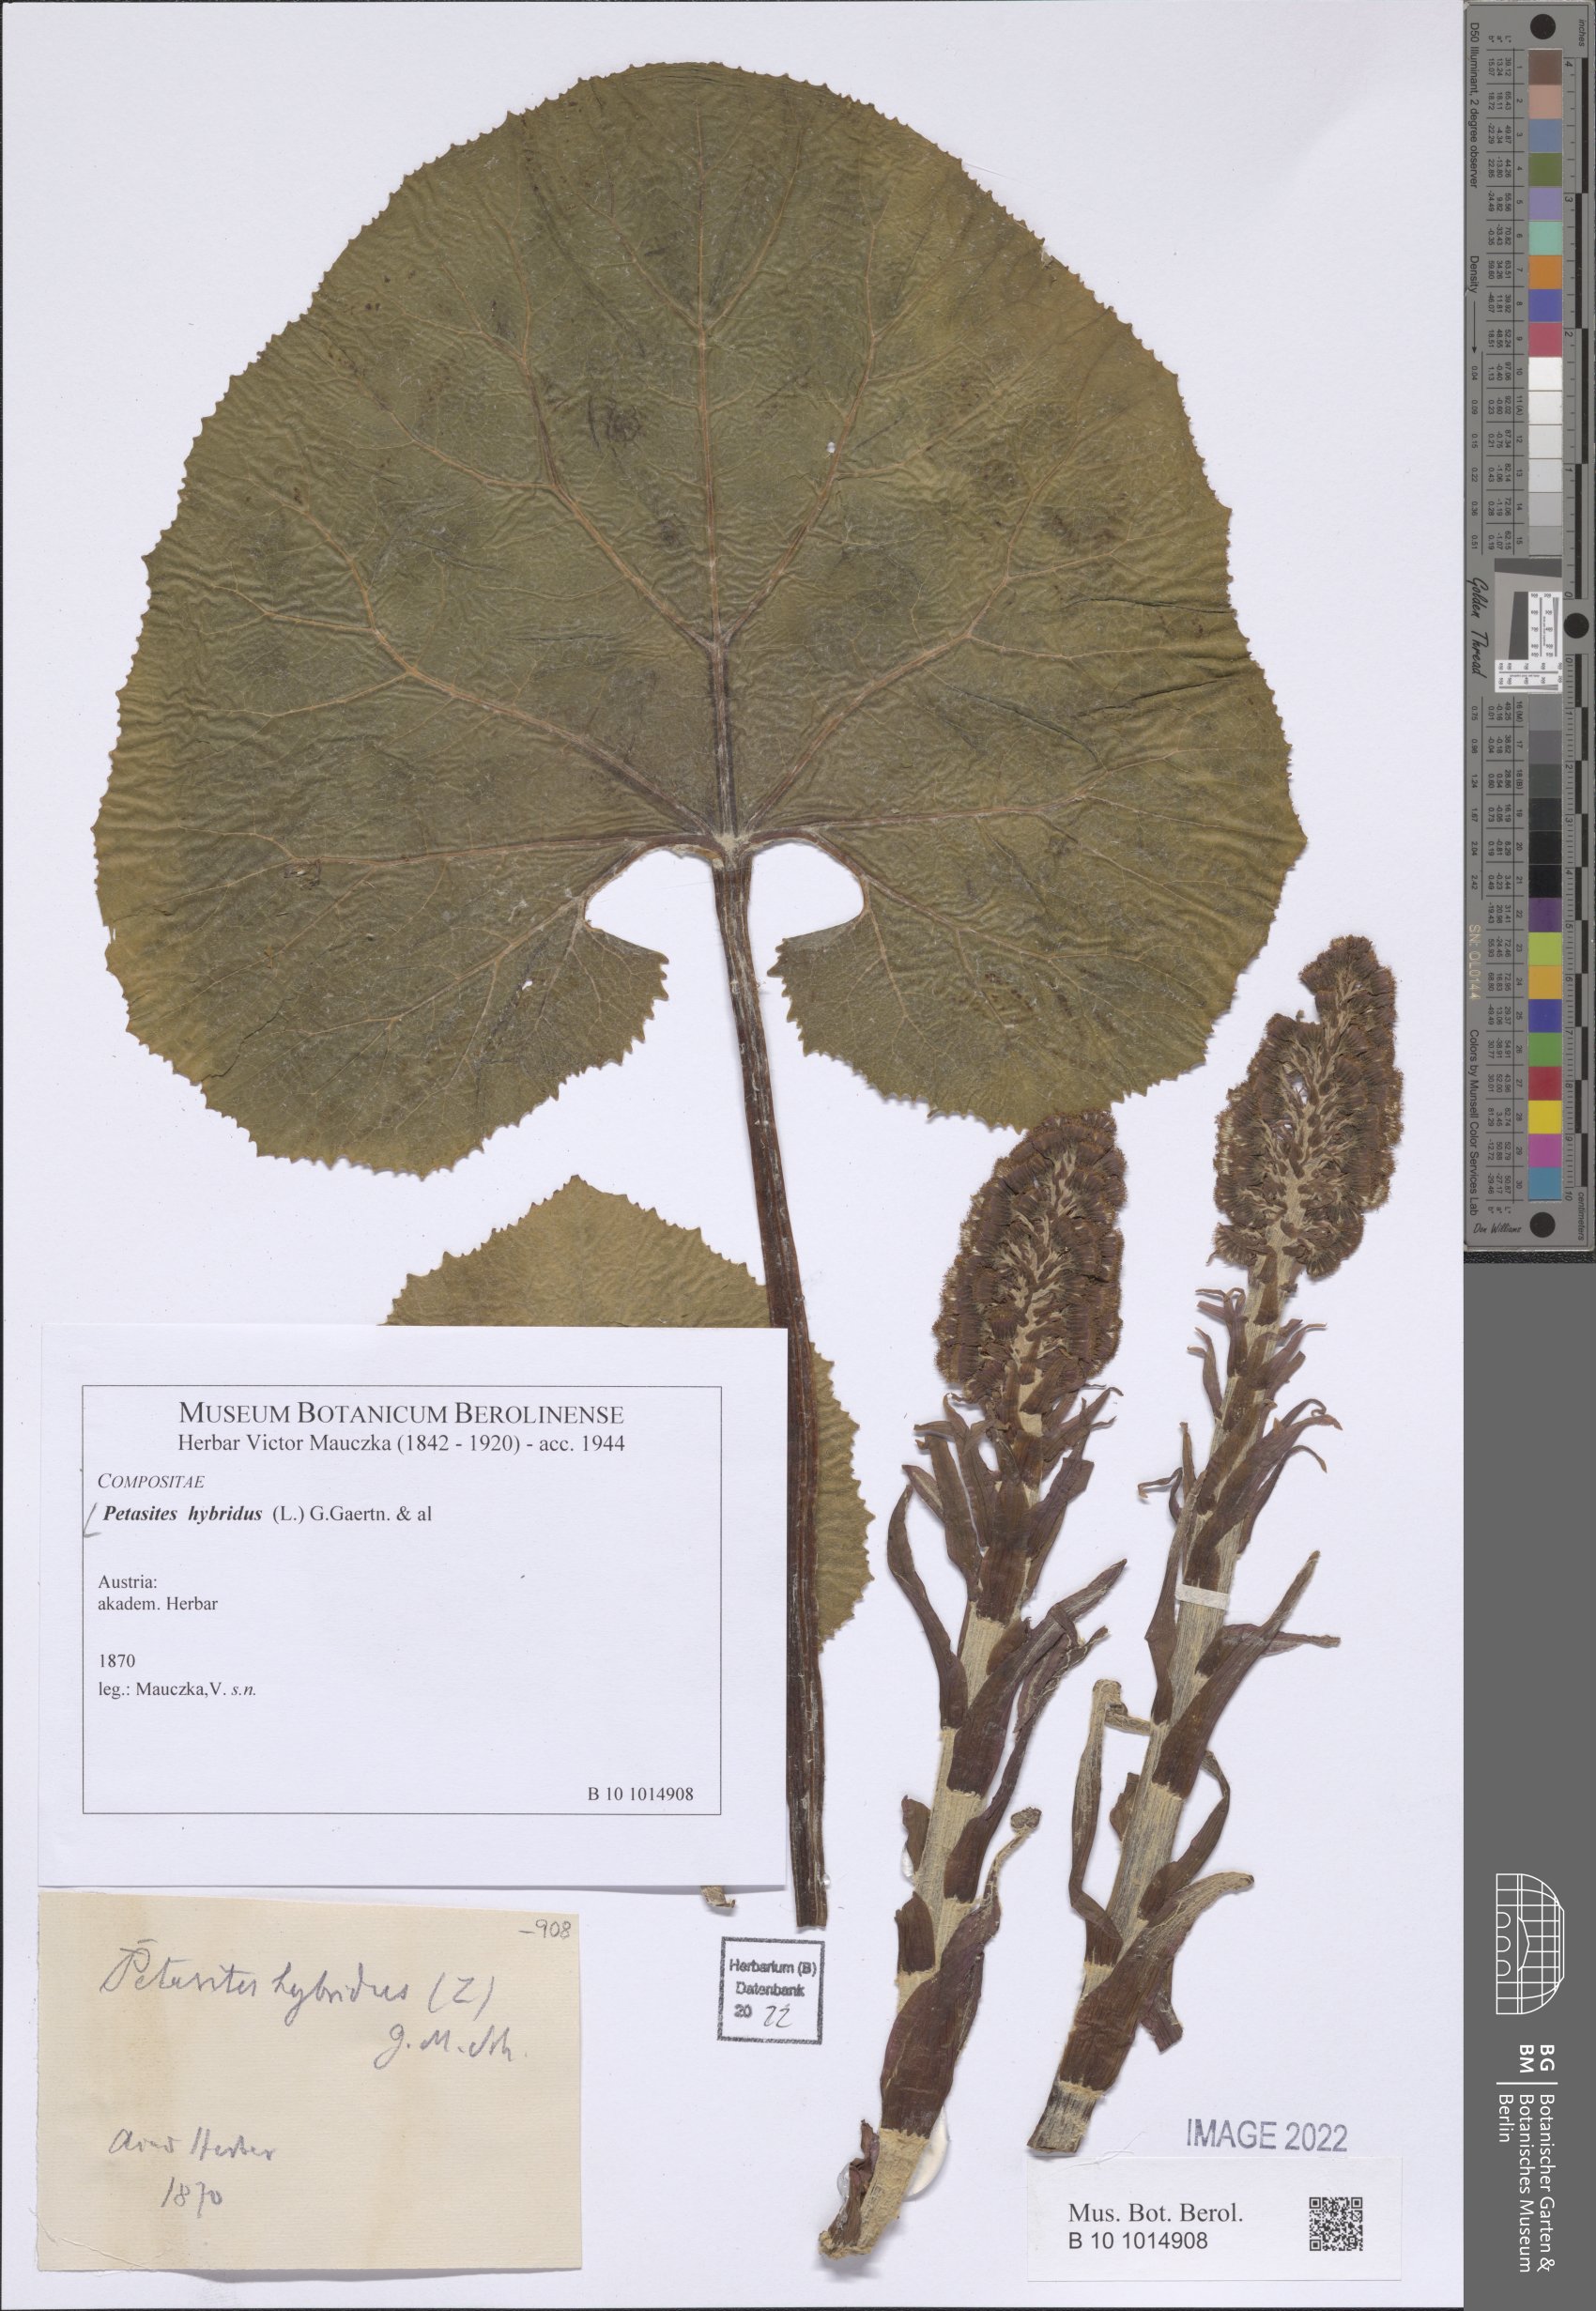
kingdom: Plantae
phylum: Tracheophyta
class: Magnoliopsida
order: Asterales
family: Asteraceae
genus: Petasites
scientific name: Petasites hybridus
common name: Butterbur
